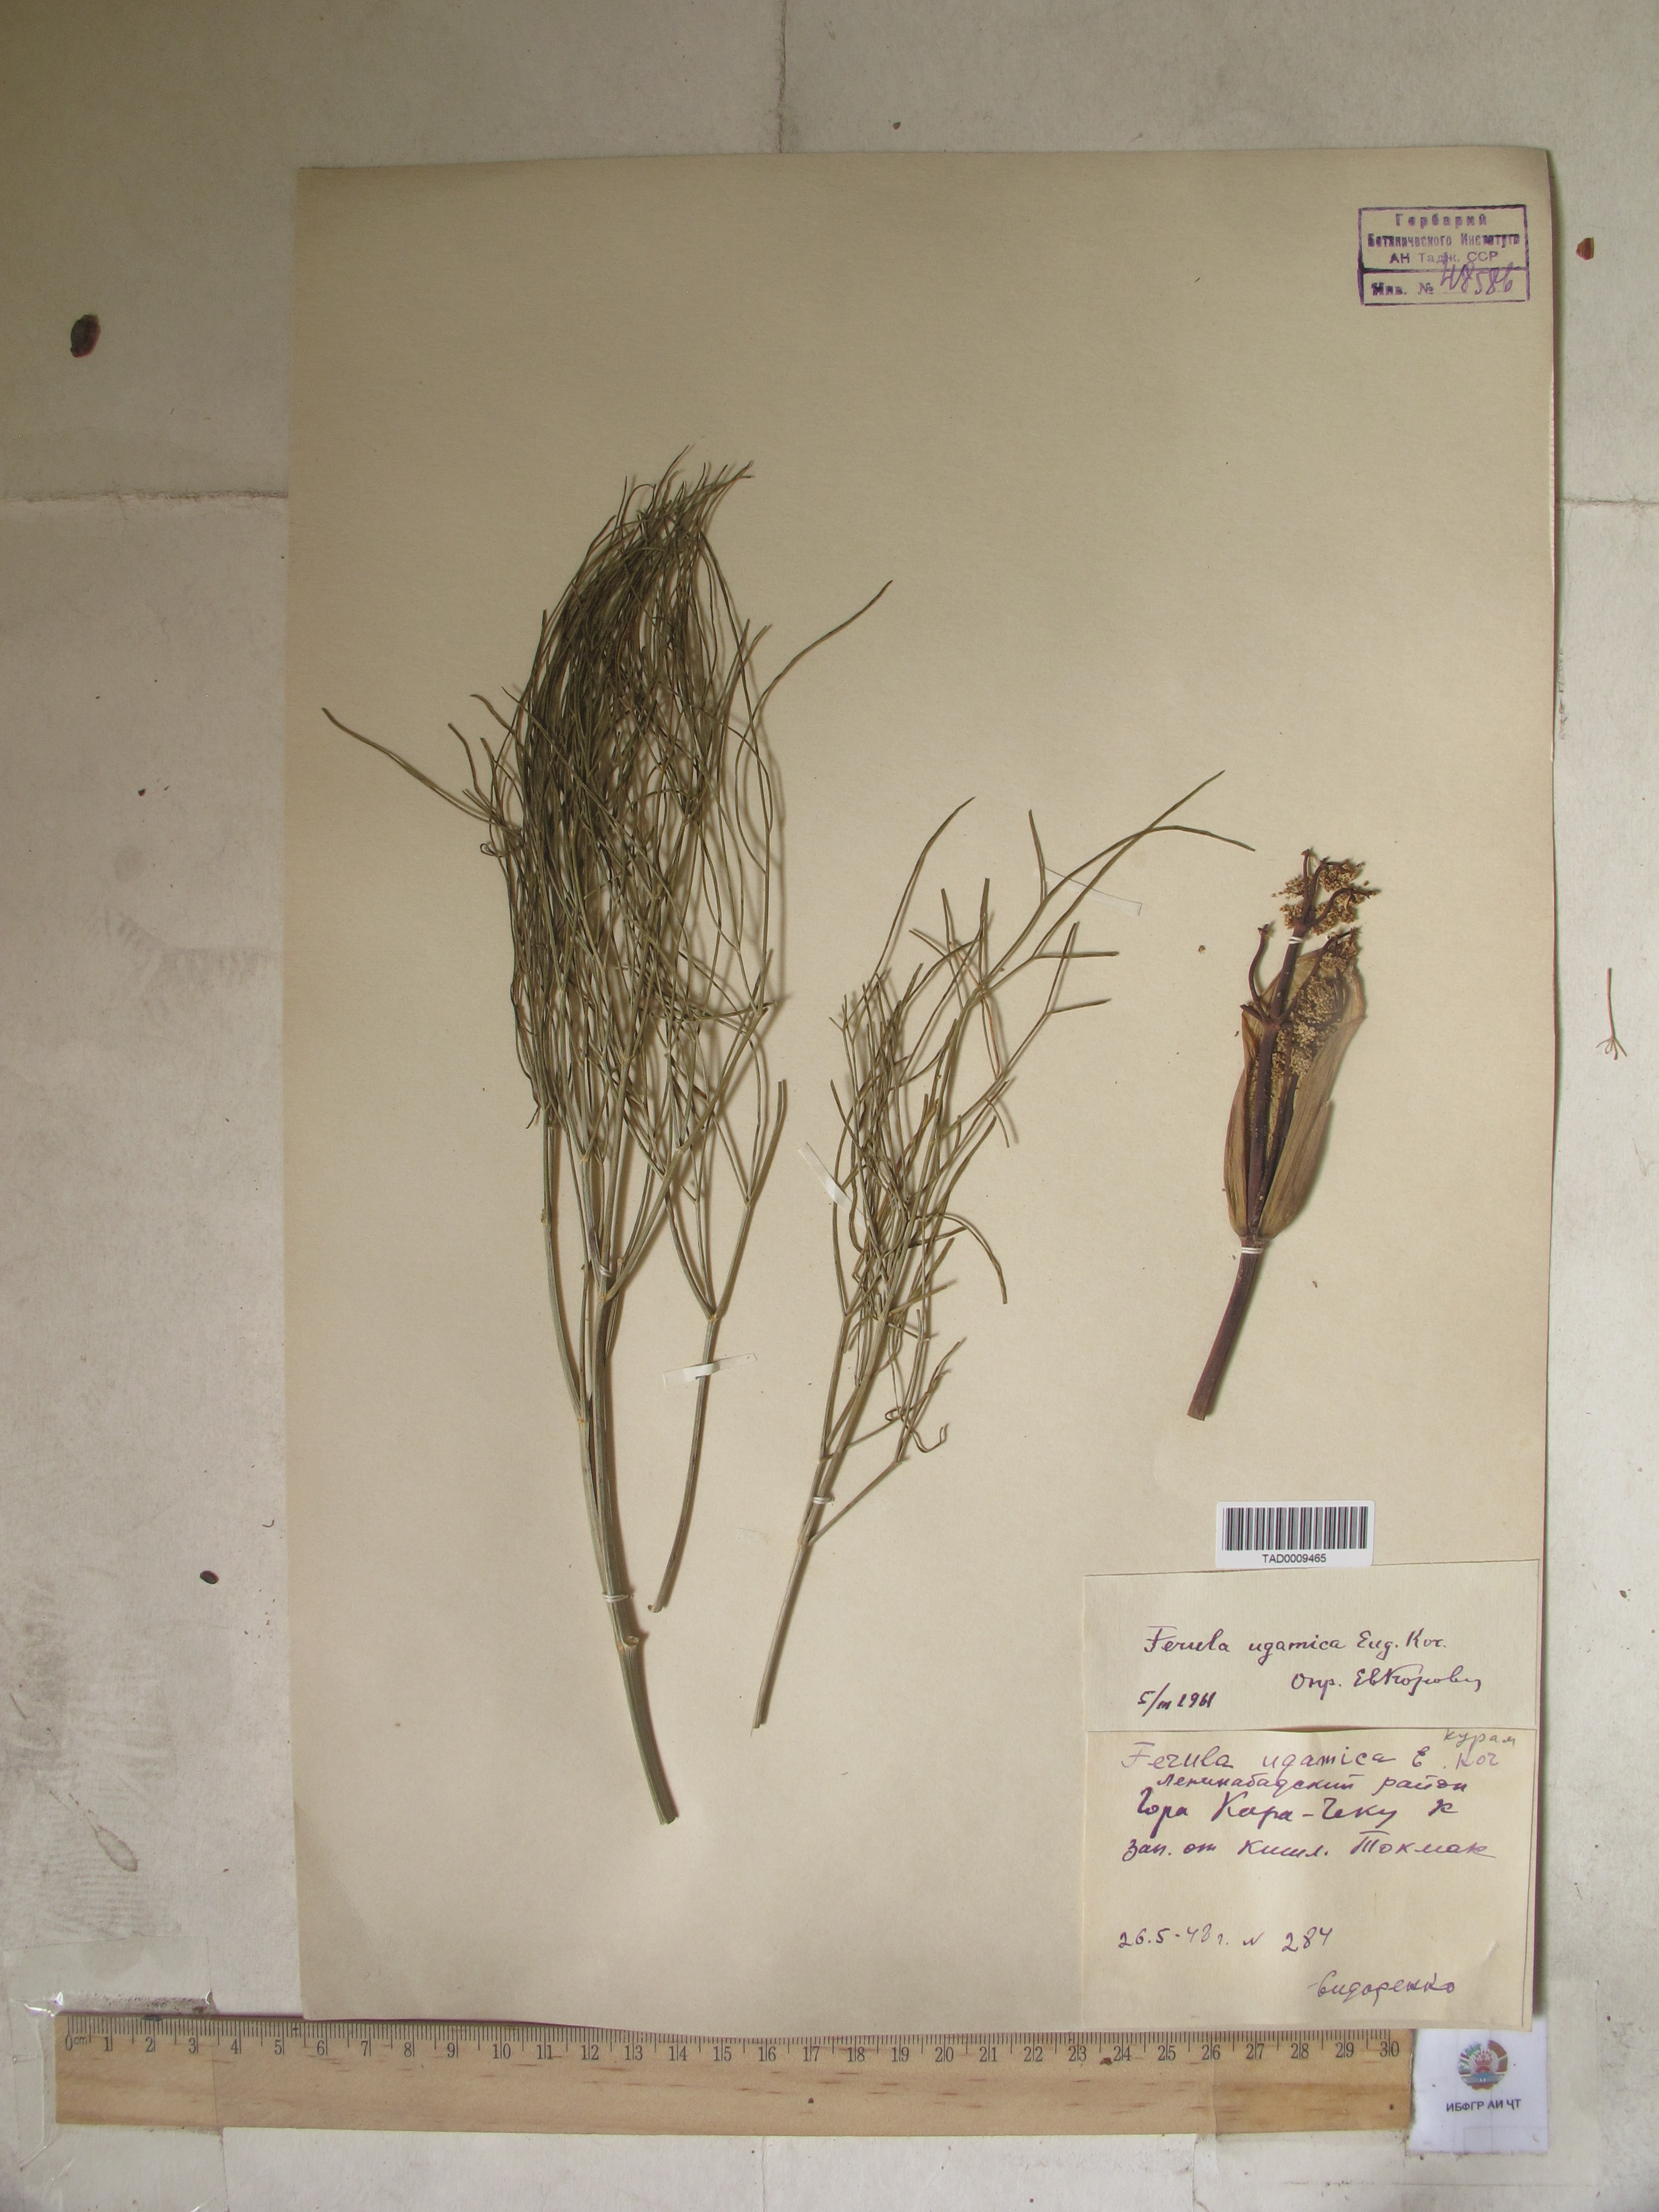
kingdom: Plantae
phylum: Tracheophyta
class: Magnoliopsida
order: Apiales
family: Apiaceae
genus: Ferula
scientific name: Ferula ugamica
